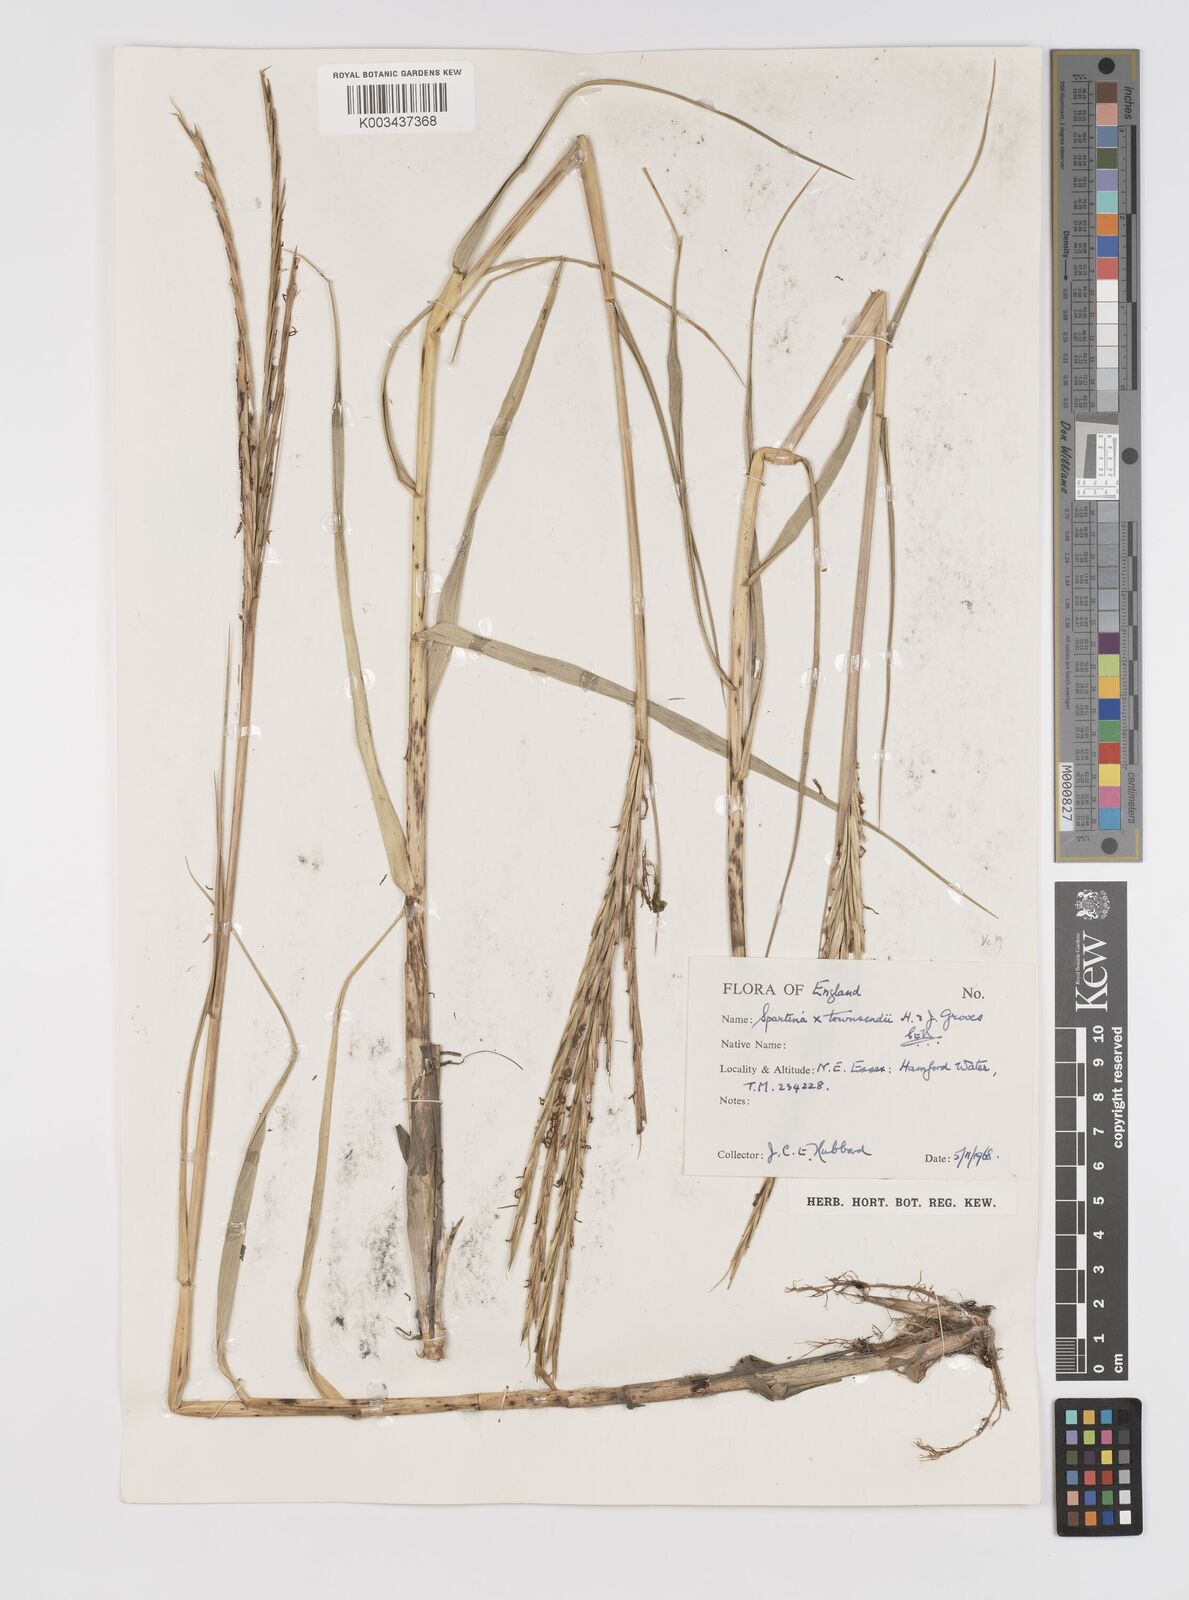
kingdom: Plantae
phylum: Tracheophyta
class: Liliopsida
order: Poales
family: Poaceae
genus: Sporobolus
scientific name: Sporobolus townsendii
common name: Townsend's cordgrass
